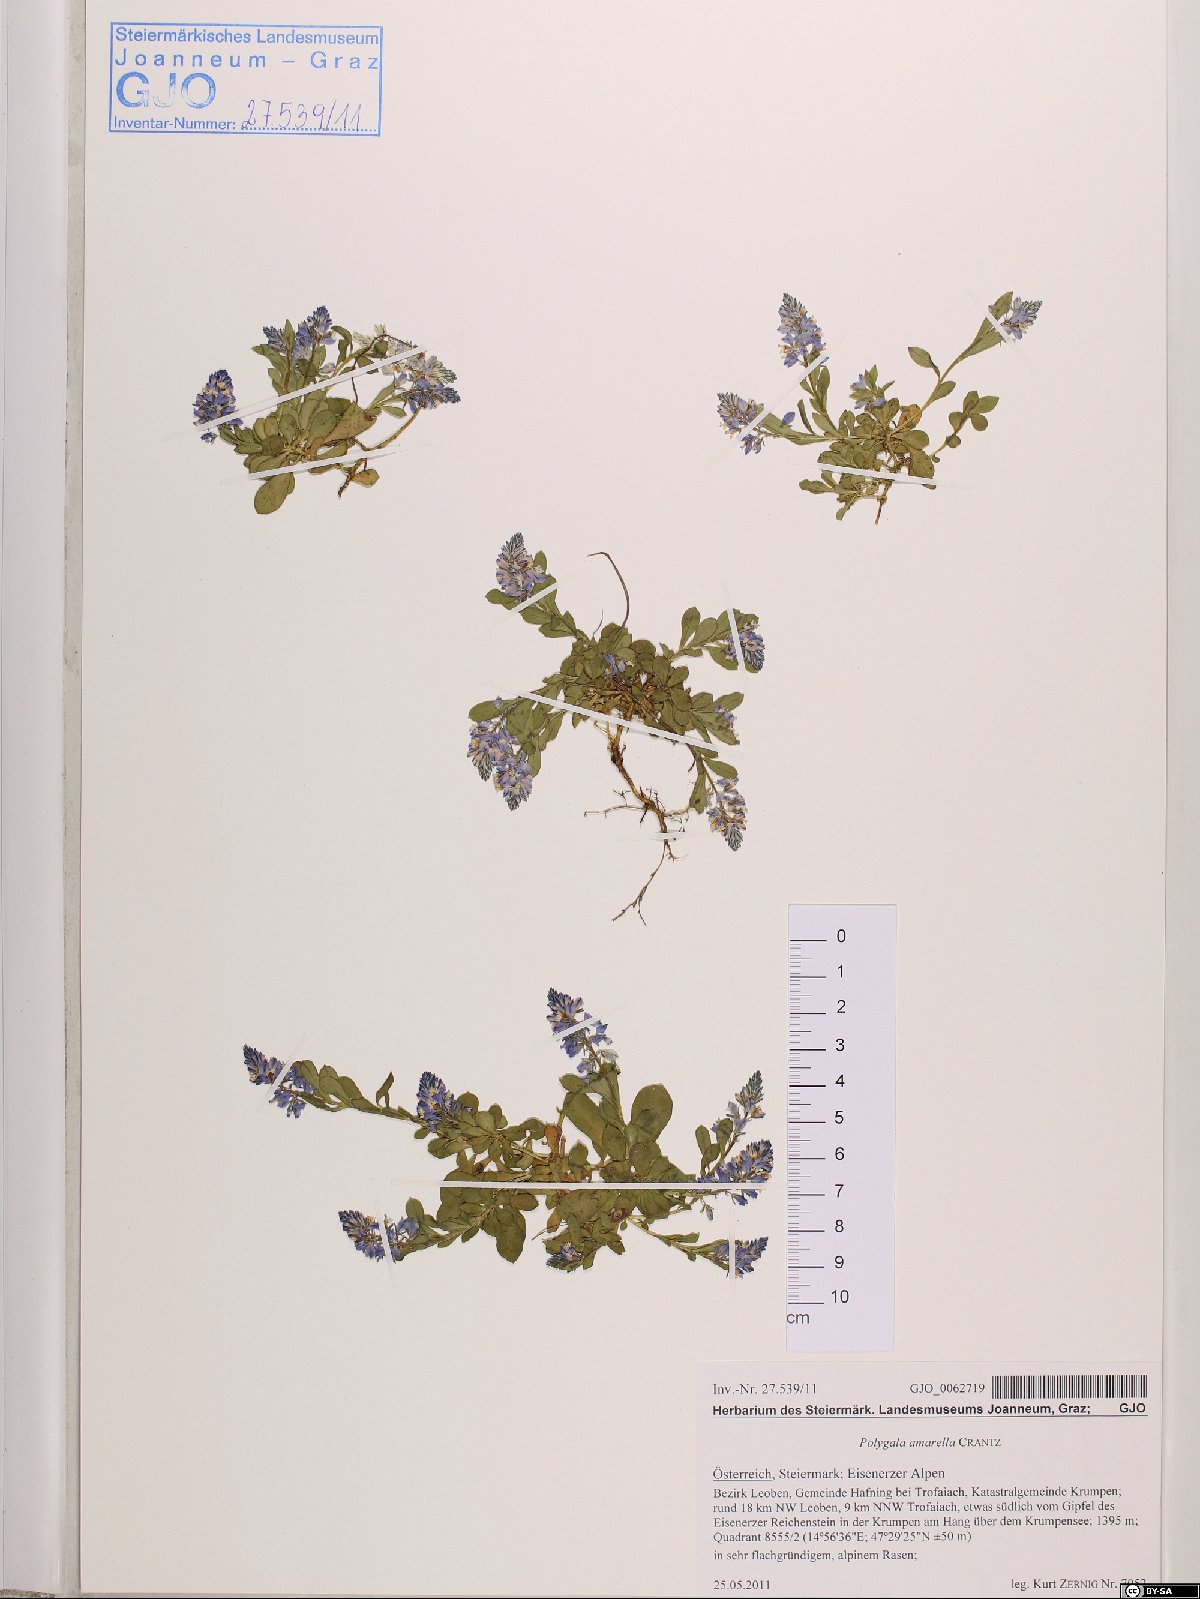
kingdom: Plantae
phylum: Tracheophyta
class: Magnoliopsida
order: Fabales
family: Polygalaceae
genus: Polygala
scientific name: Polygala amarella
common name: Dwarf milkwort
